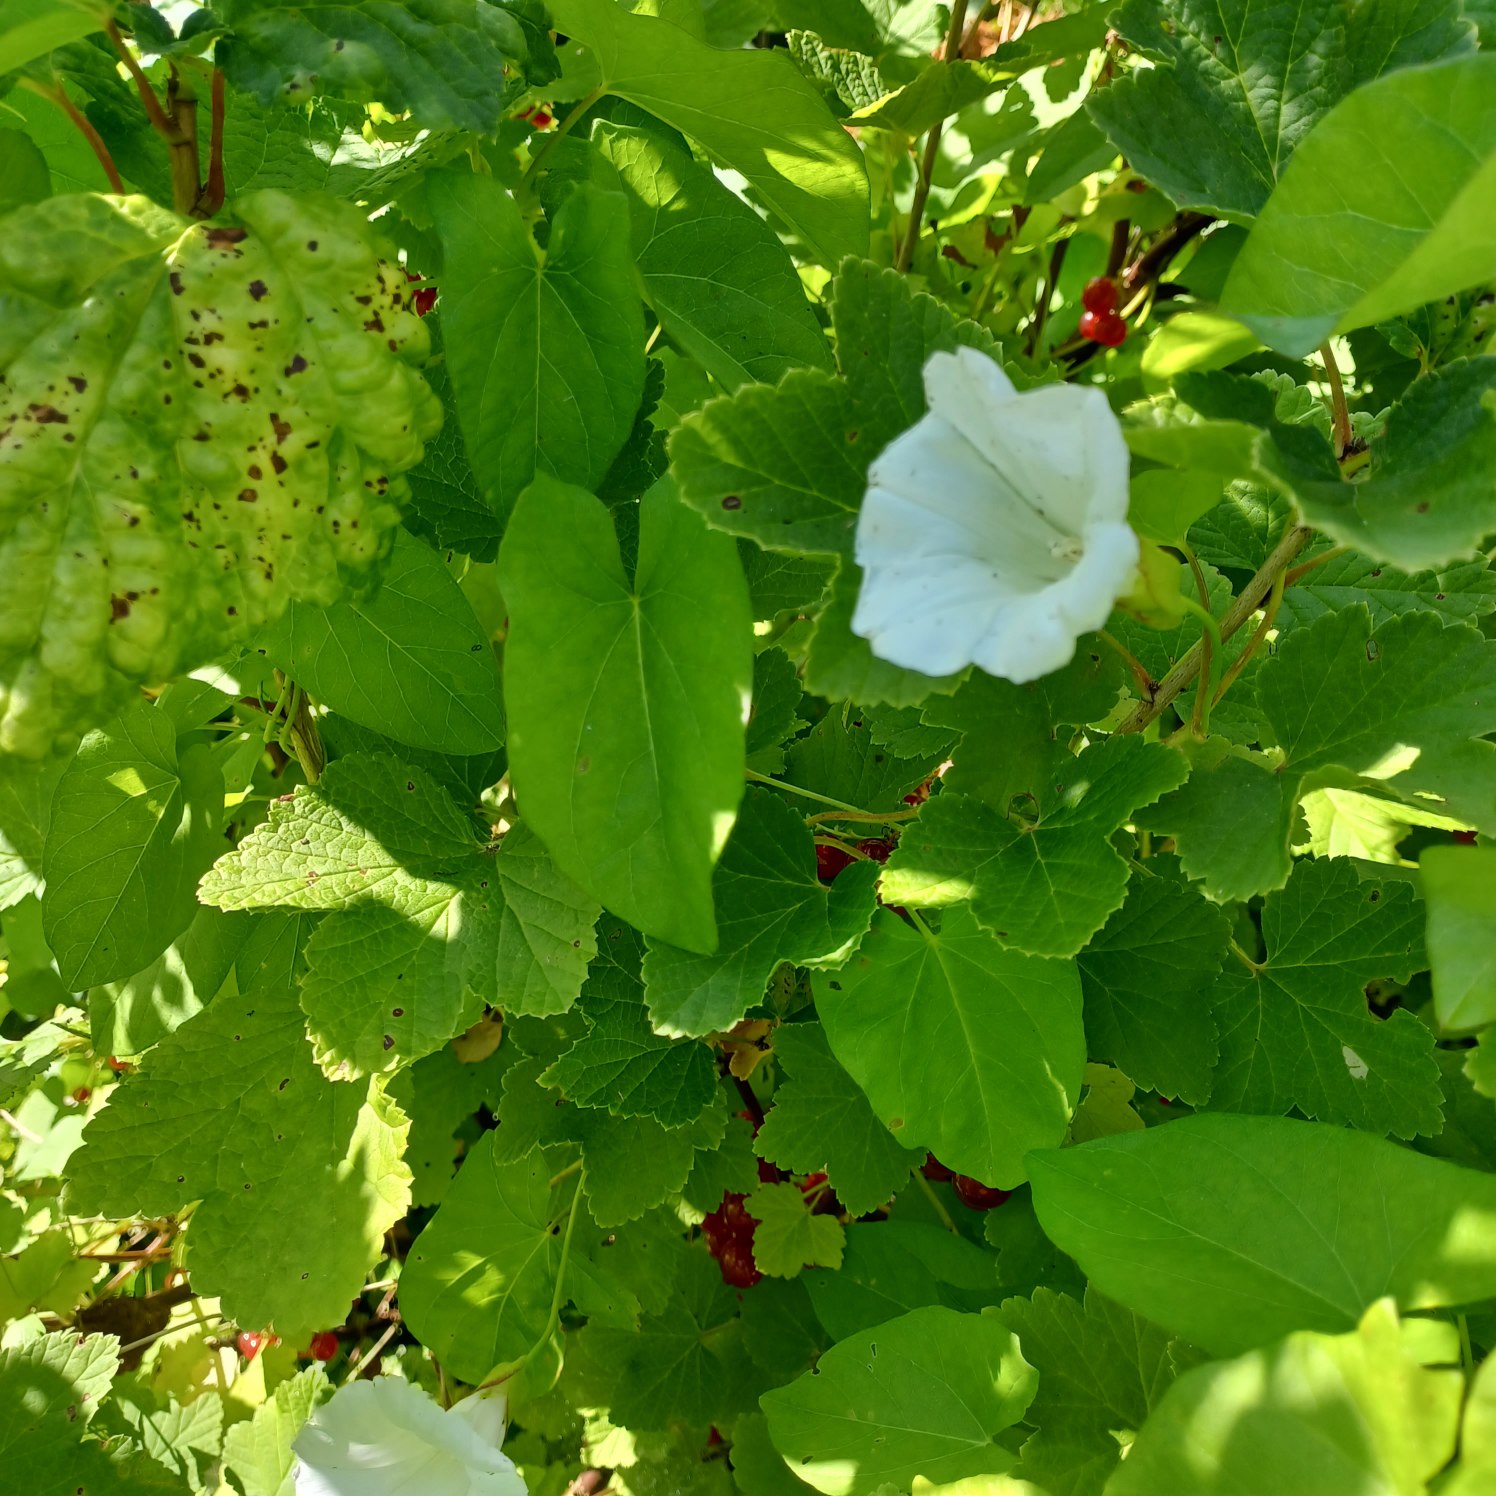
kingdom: Plantae
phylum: Tracheophyta
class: Magnoliopsida
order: Solanales
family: Convolvulaceae
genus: Calystegia
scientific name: Calystegia sepium
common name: Gærde-snerle
